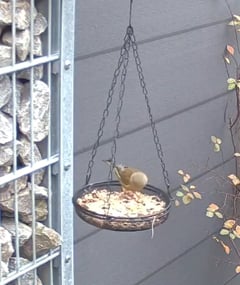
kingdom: Plantae
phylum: Tracheophyta
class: Liliopsida
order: Poales
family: Poaceae
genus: Chloris
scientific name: Chloris chloris
